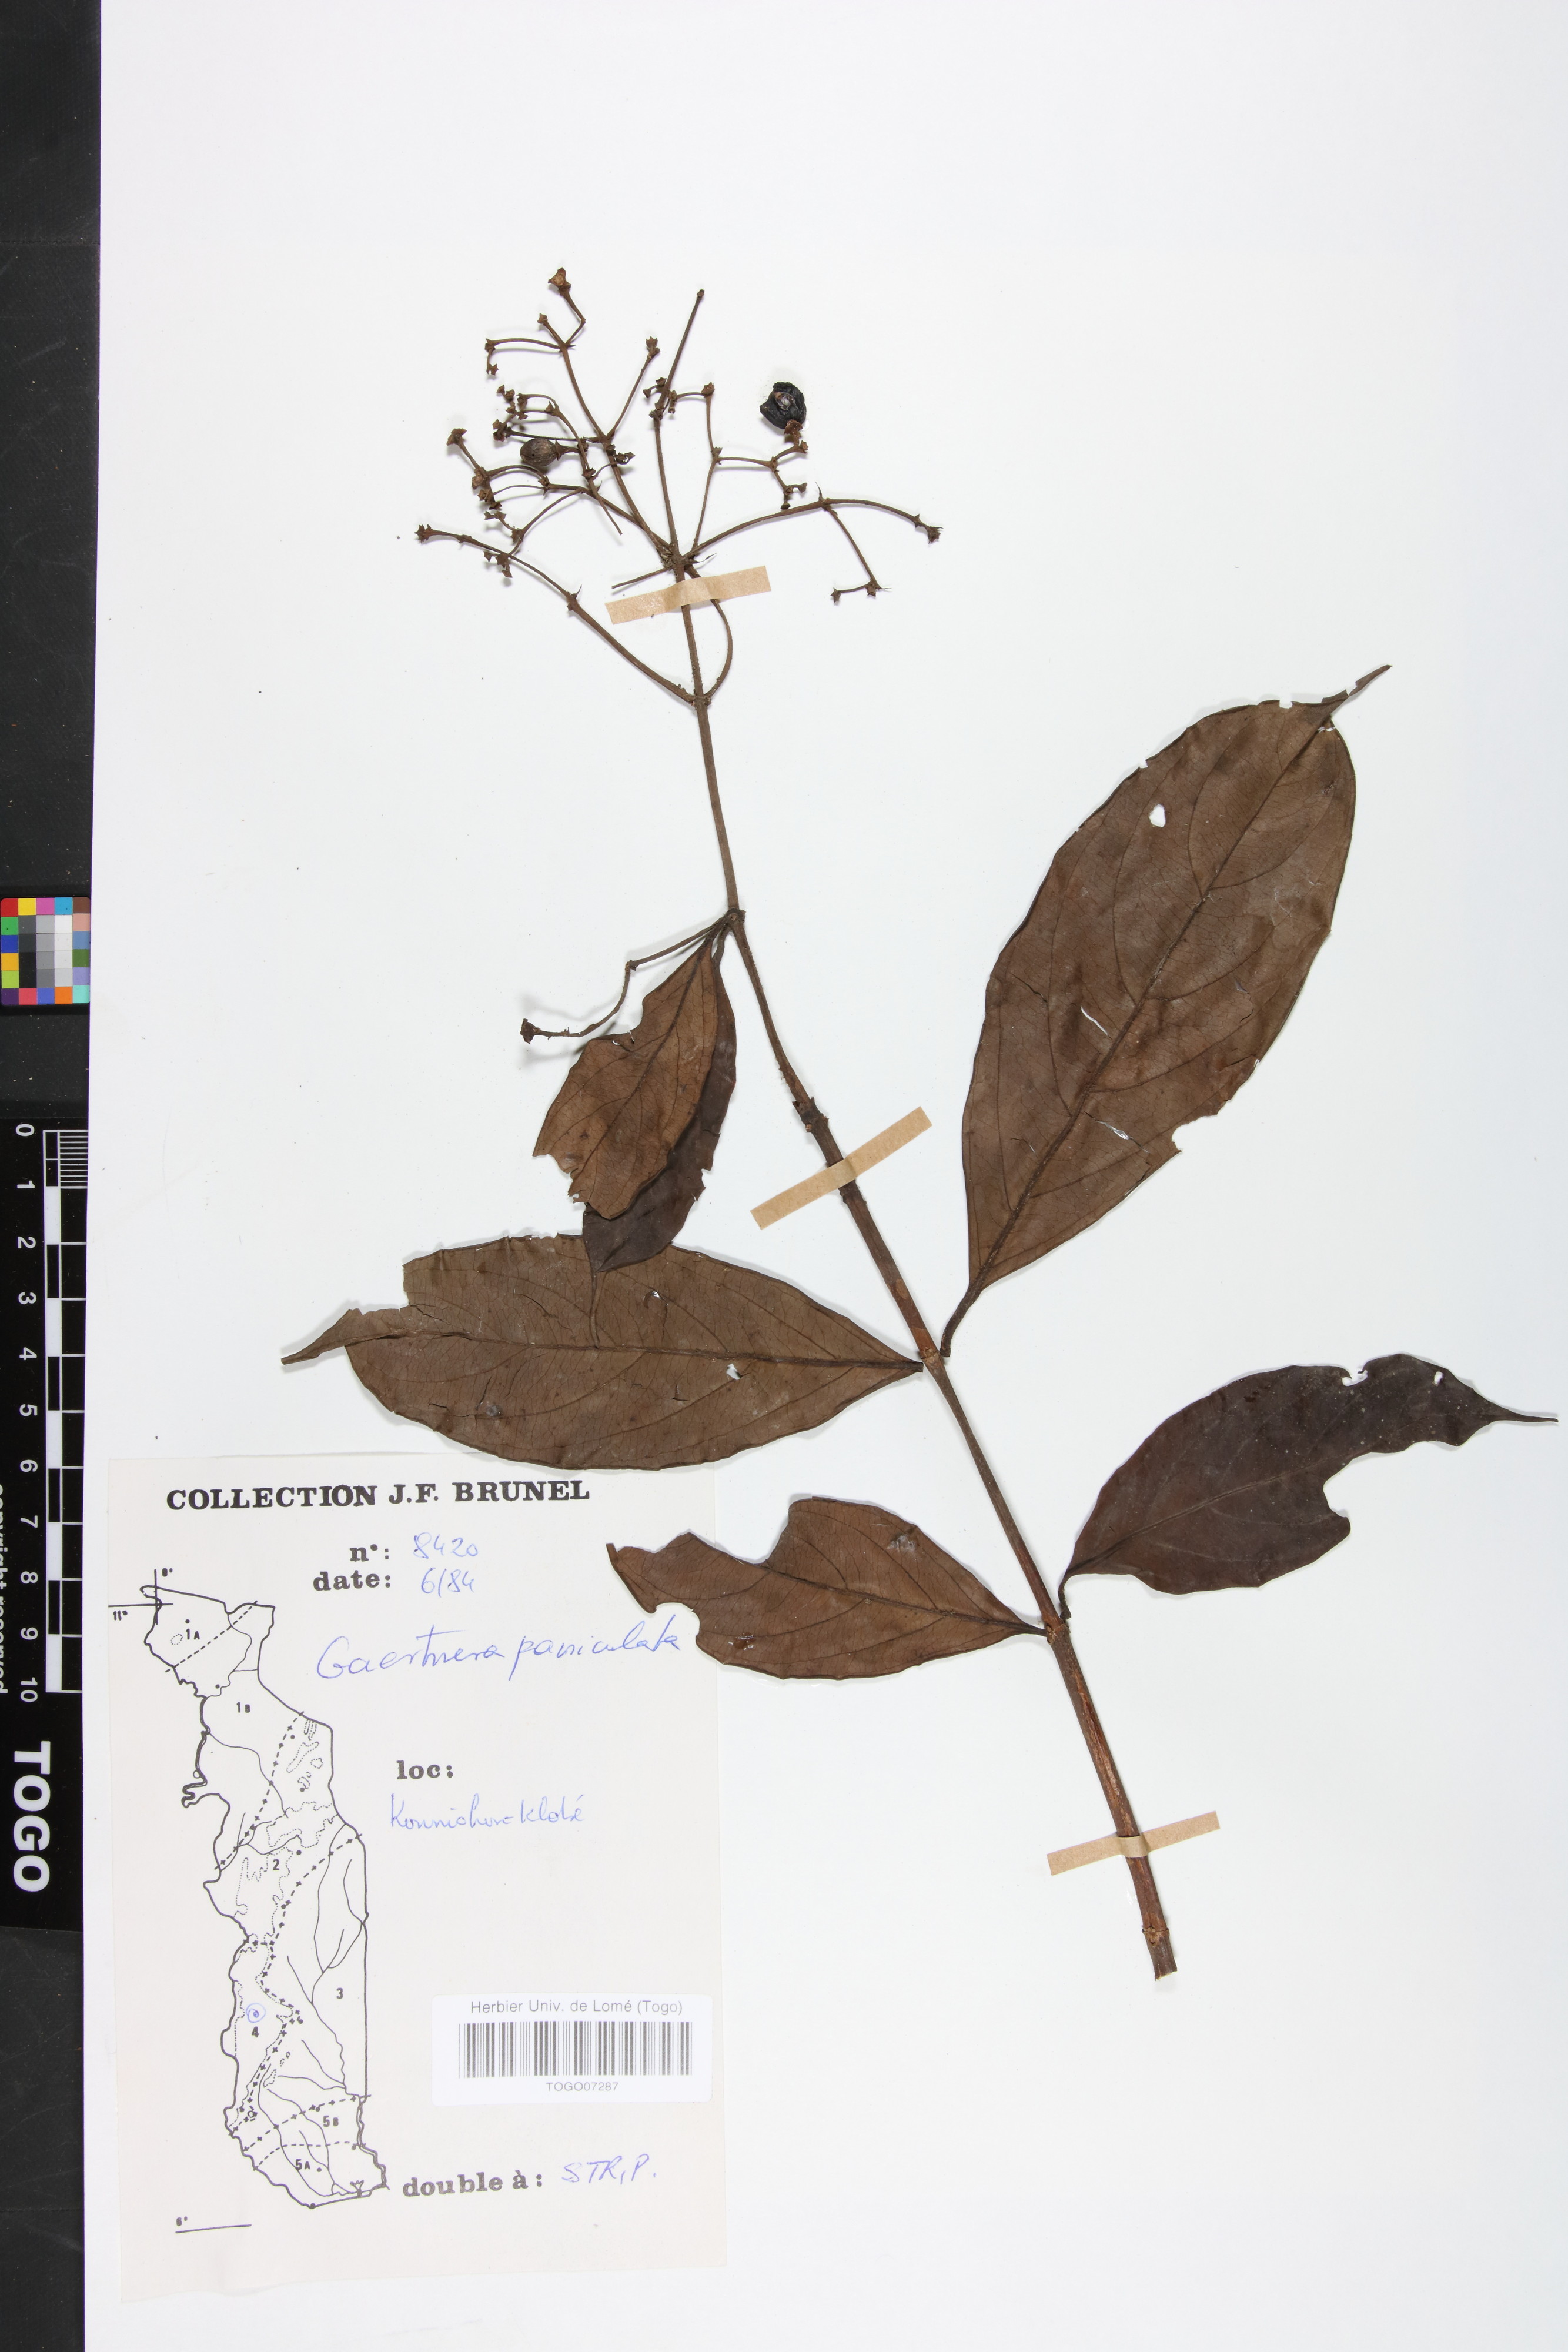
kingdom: Plantae
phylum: Tracheophyta
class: Magnoliopsida
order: Gentianales
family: Rubiaceae
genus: Gaertnera
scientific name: Gaertnera paniculata
